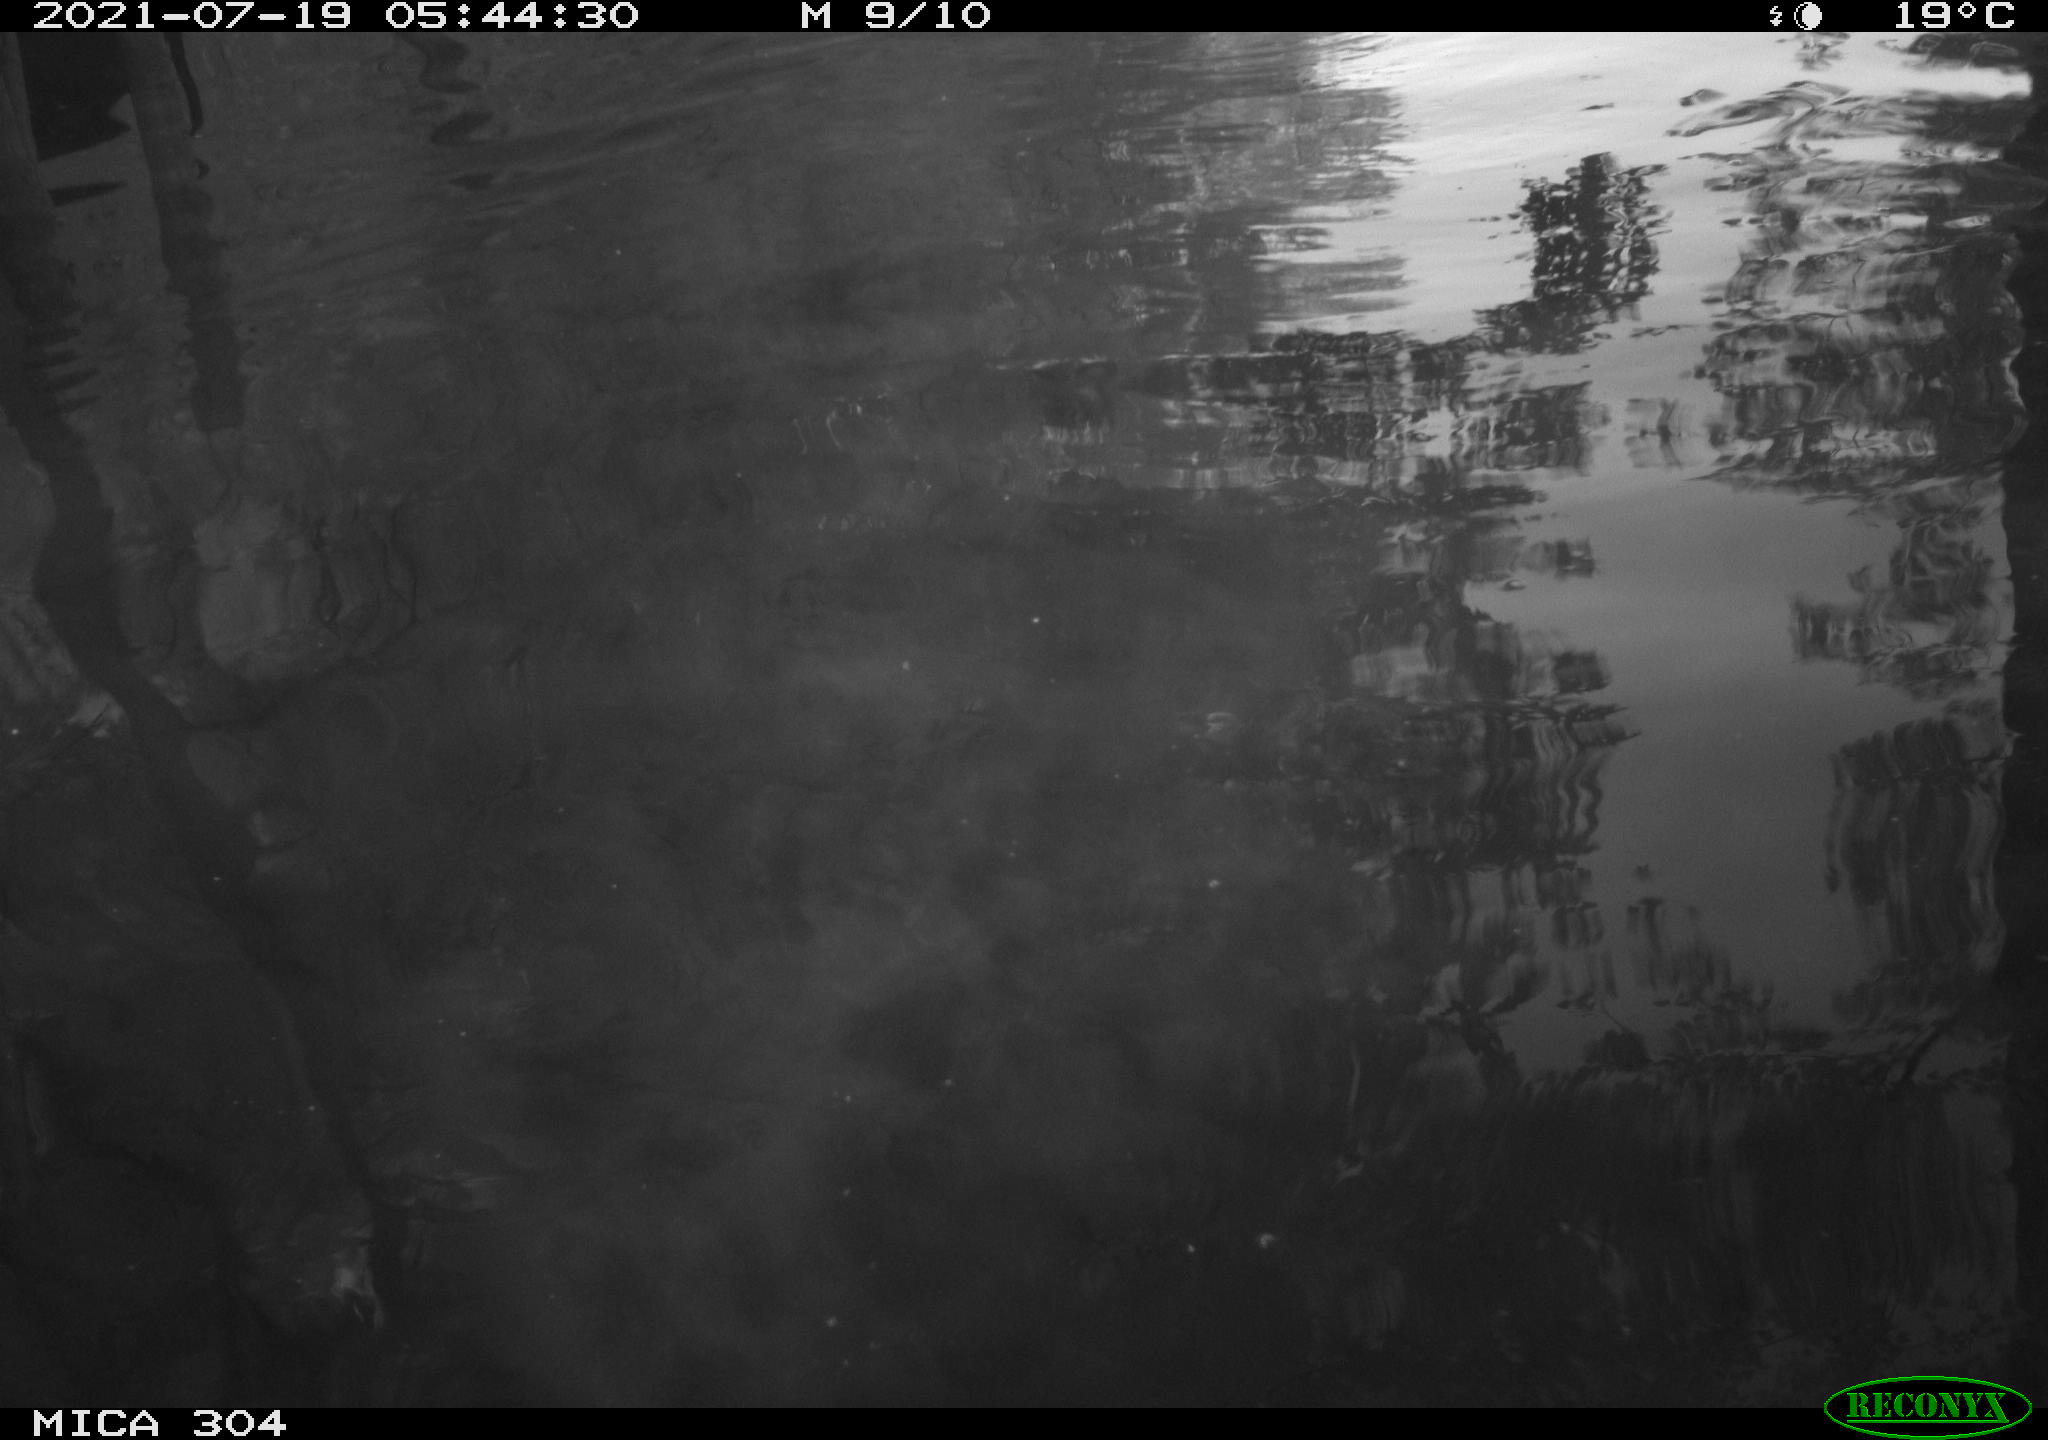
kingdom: Animalia
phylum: Chordata
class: Aves
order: Anseriformes
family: Anatidae
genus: Anas
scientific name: Anas platyrhynchos
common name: Mallard
